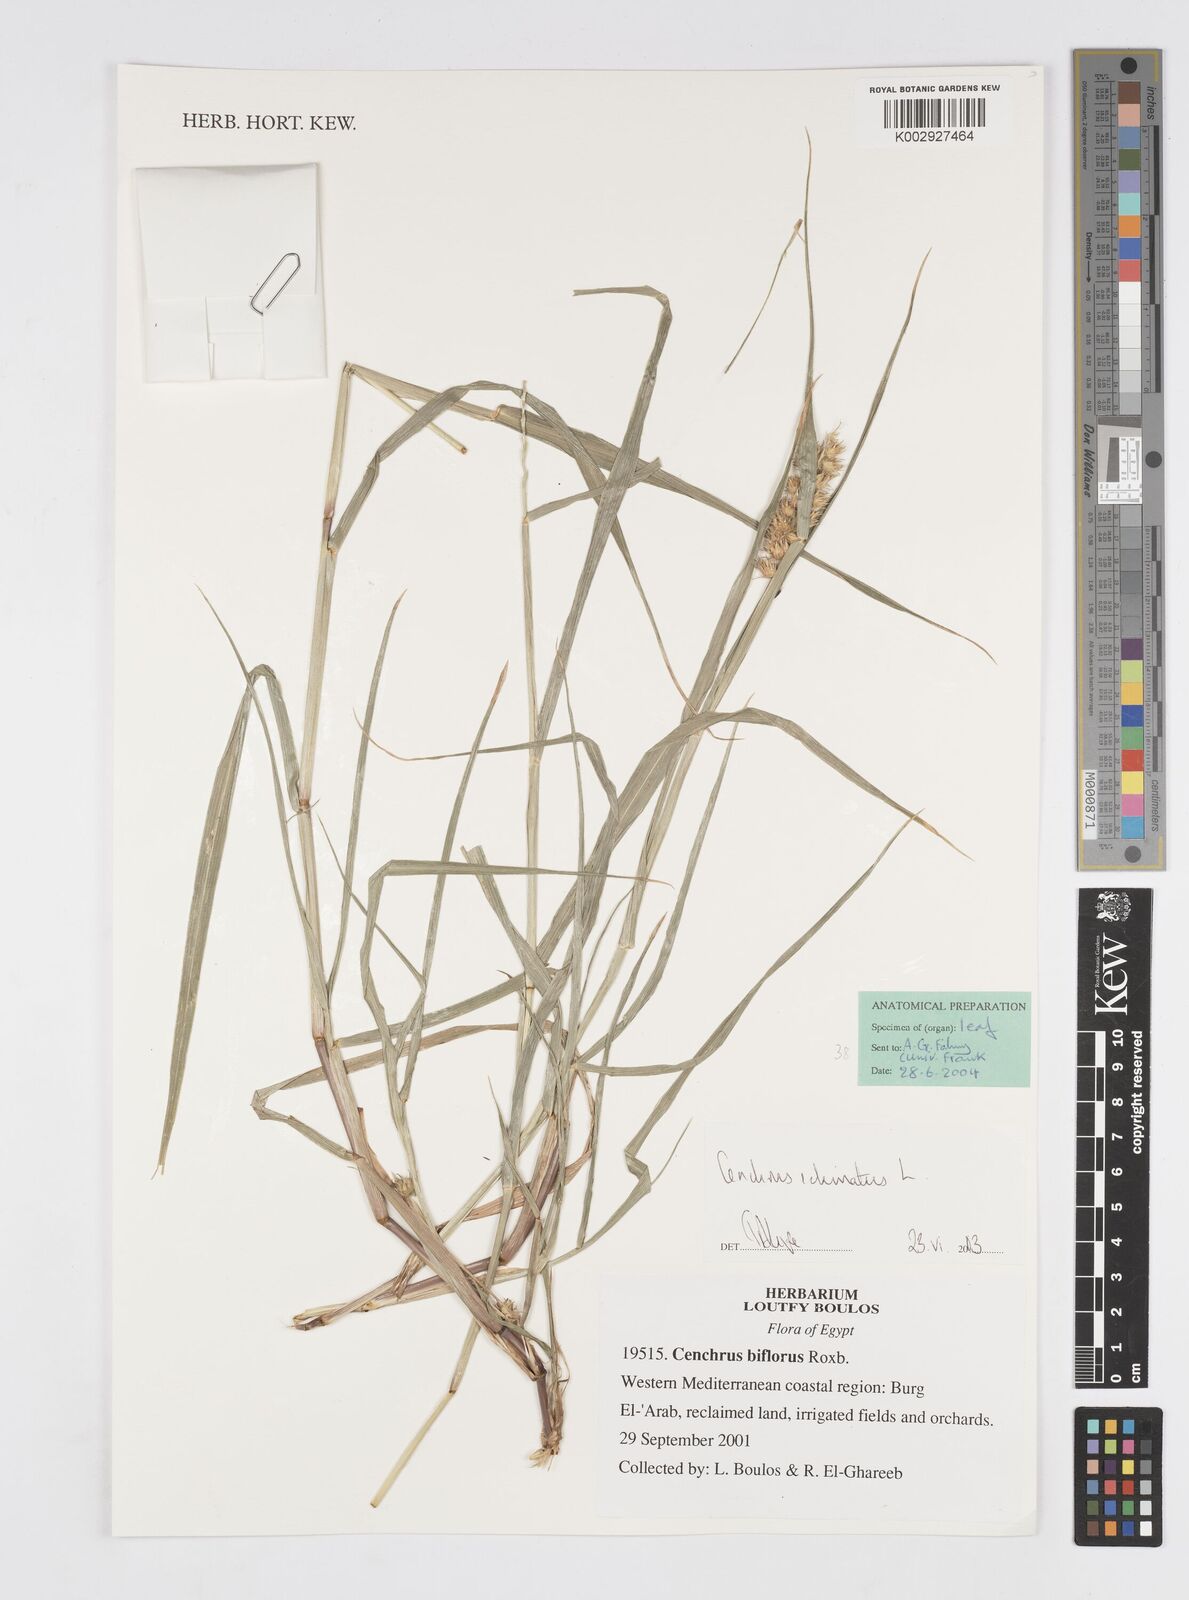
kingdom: Plantae
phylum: Tracheophyta
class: Liliopsida
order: Poales
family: Poaceae
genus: Cenchrus
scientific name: Cenchrus echinatus
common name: Southern sandbur
